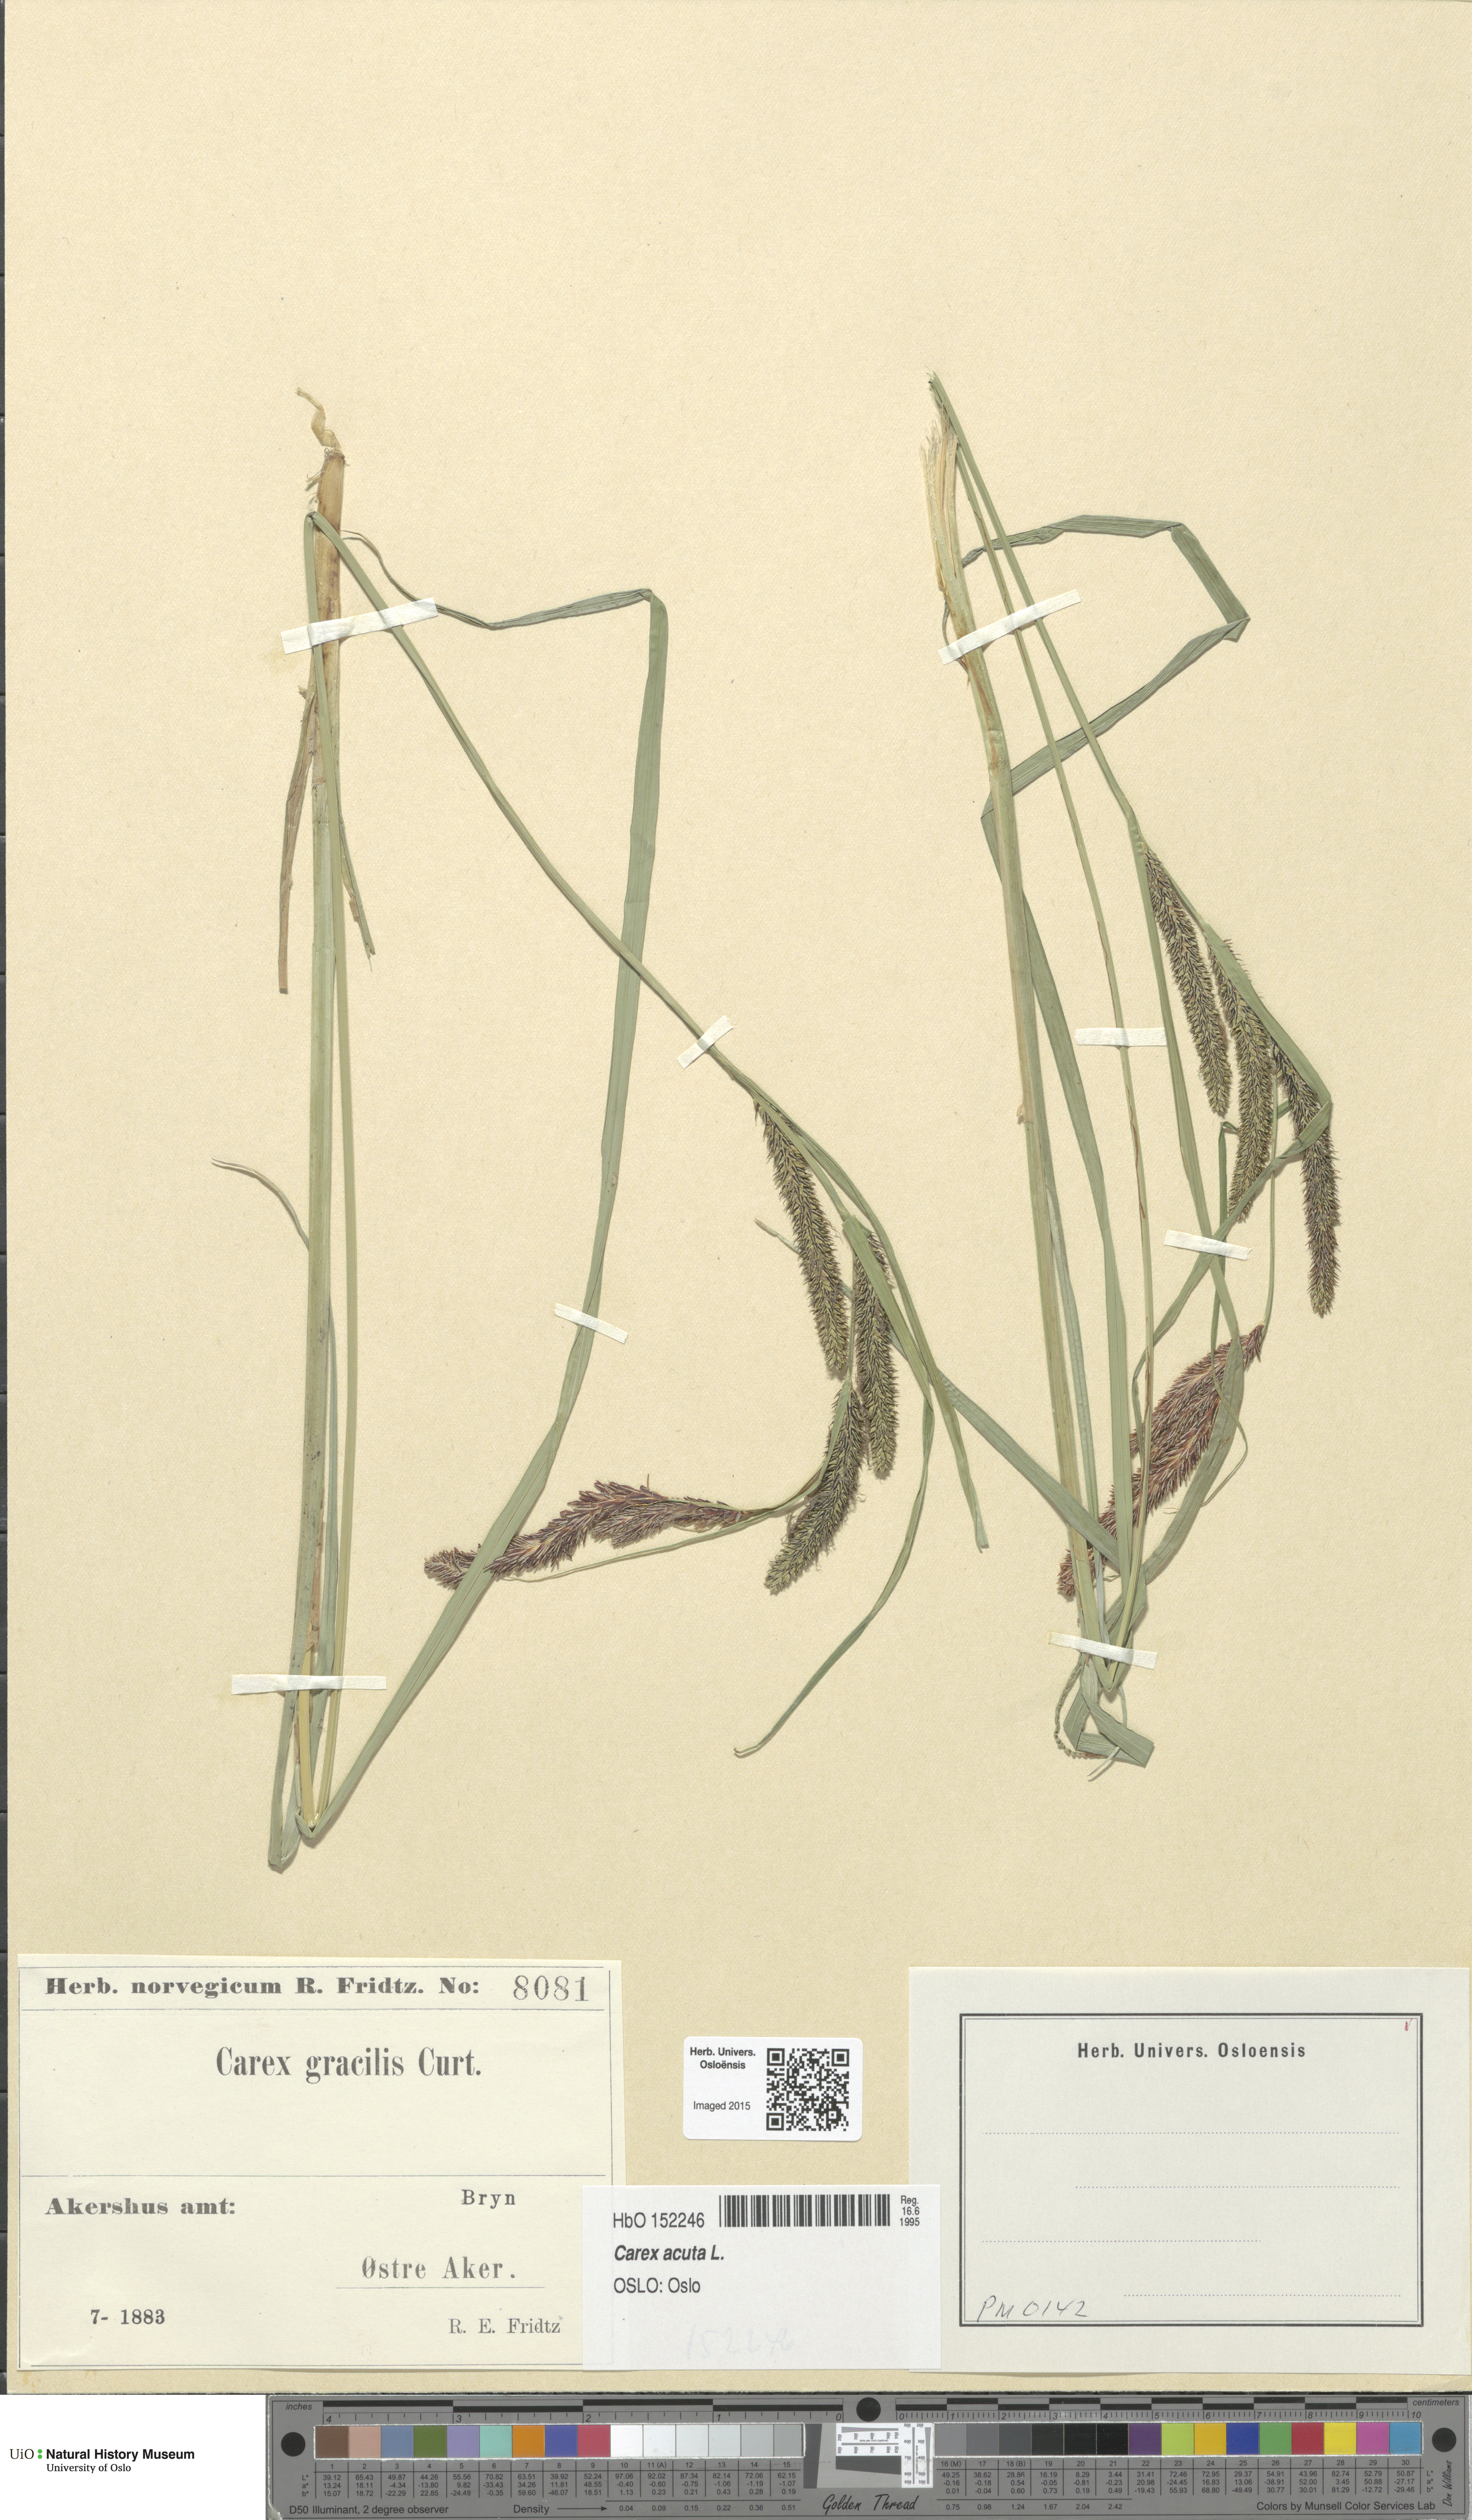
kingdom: Plantae
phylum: Tracheophyta
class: Liliopsida
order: Poales
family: Cyperaceae
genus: Carex
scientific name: Carex acuta
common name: Slender tufted-sedge
